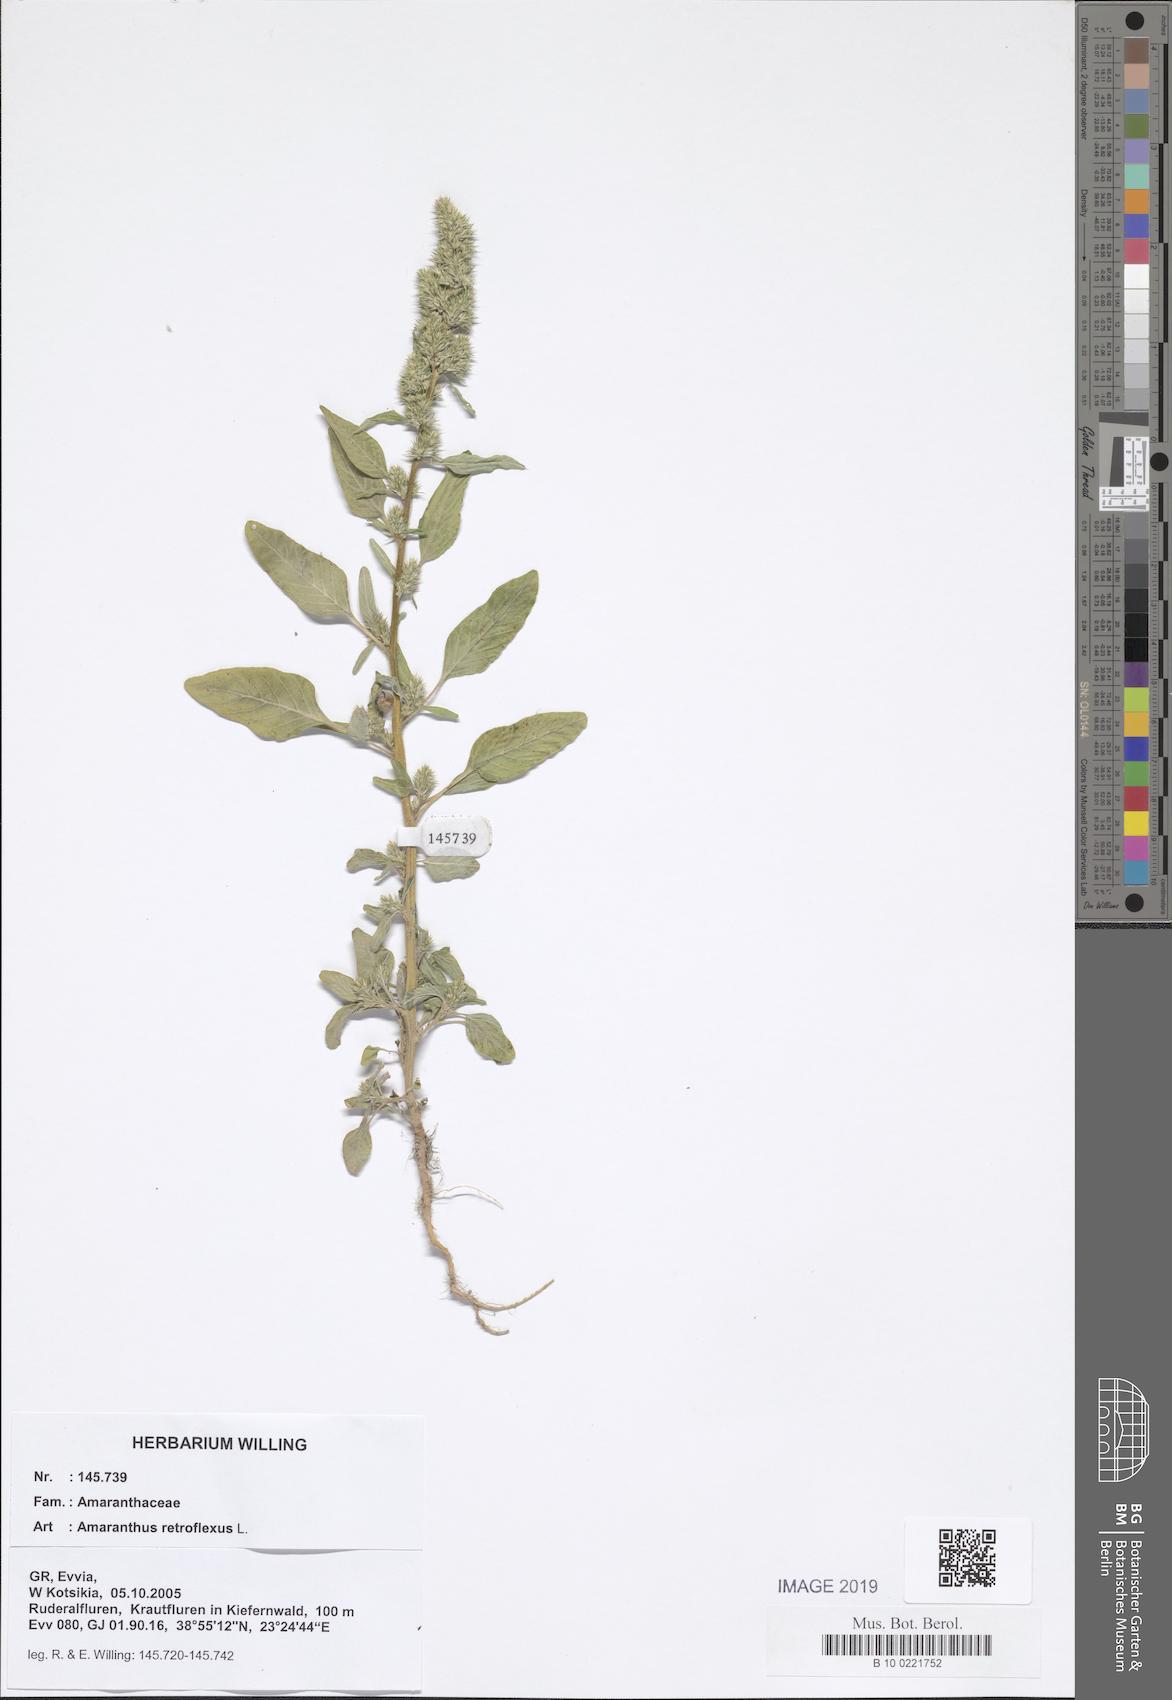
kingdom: Plantae
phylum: Tracheophyta
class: Magnoliopsida
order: Caryophyllales
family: Amaranthaceae
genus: Amaranthus
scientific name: Amaranthus retroflexus
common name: Redroot amaranth
